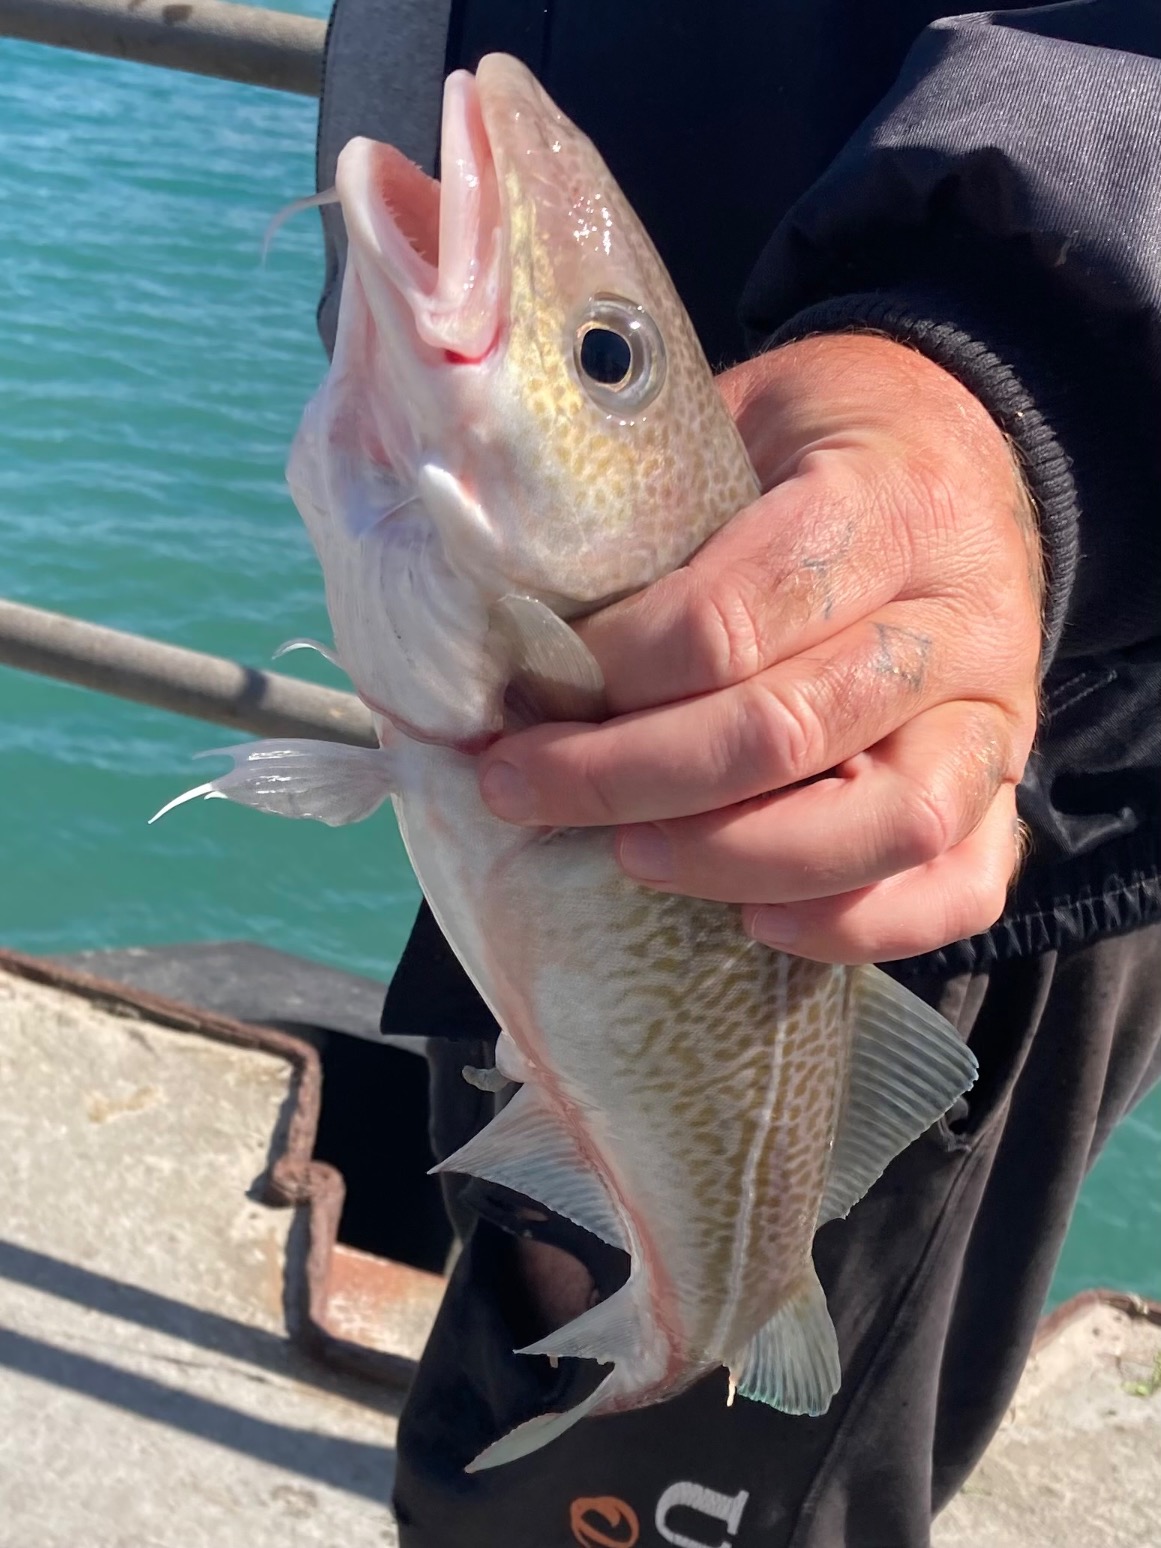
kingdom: Animalia
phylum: Chordata
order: Gadiformes
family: Gadidae
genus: Gadus
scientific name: Gadus morhua
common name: Torsk
